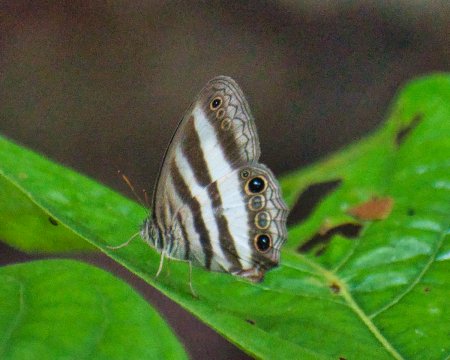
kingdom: Animalia
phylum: Arthropoda
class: Insecta
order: Lepidoptera
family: Nymphalidae
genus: Pareuptychia
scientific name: Pareuptychia hesione
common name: White Satyr
